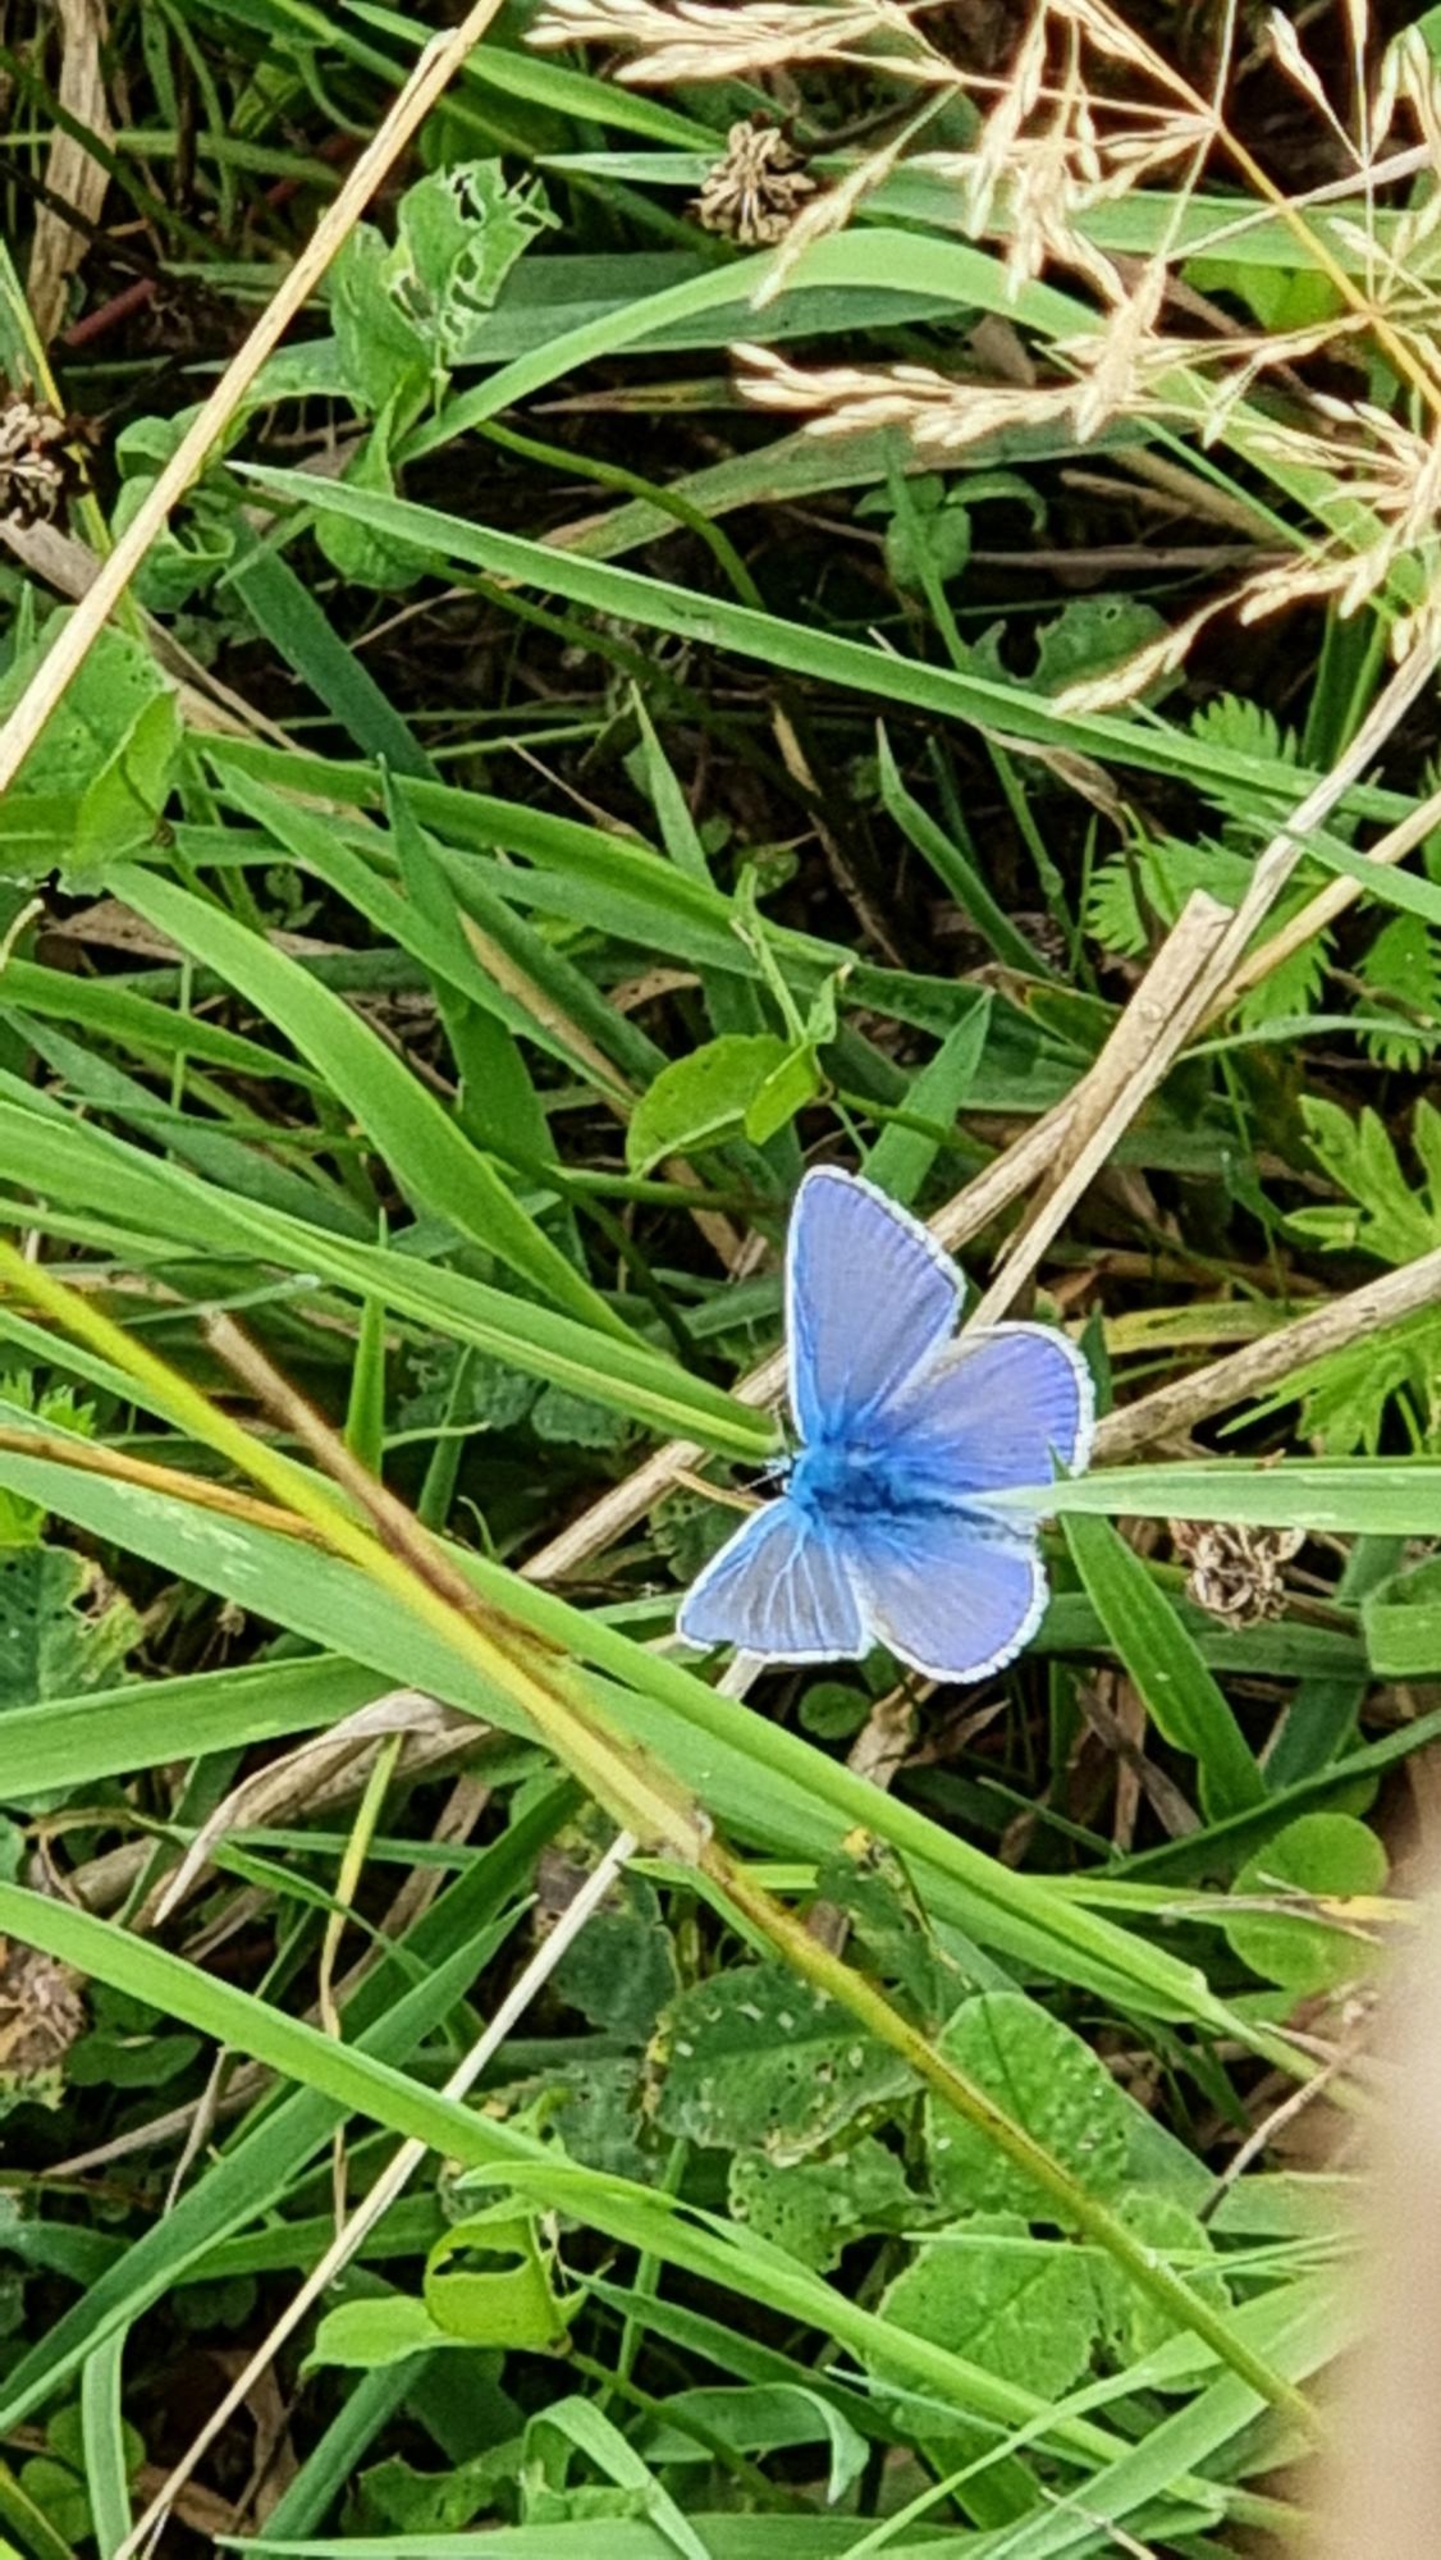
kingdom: Animalia
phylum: Arthropoda
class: Insecta
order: Lepidoptera
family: Lycaenidae
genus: Polyommatus
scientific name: Polyommatus icarus
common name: Almindelig blåfugl
